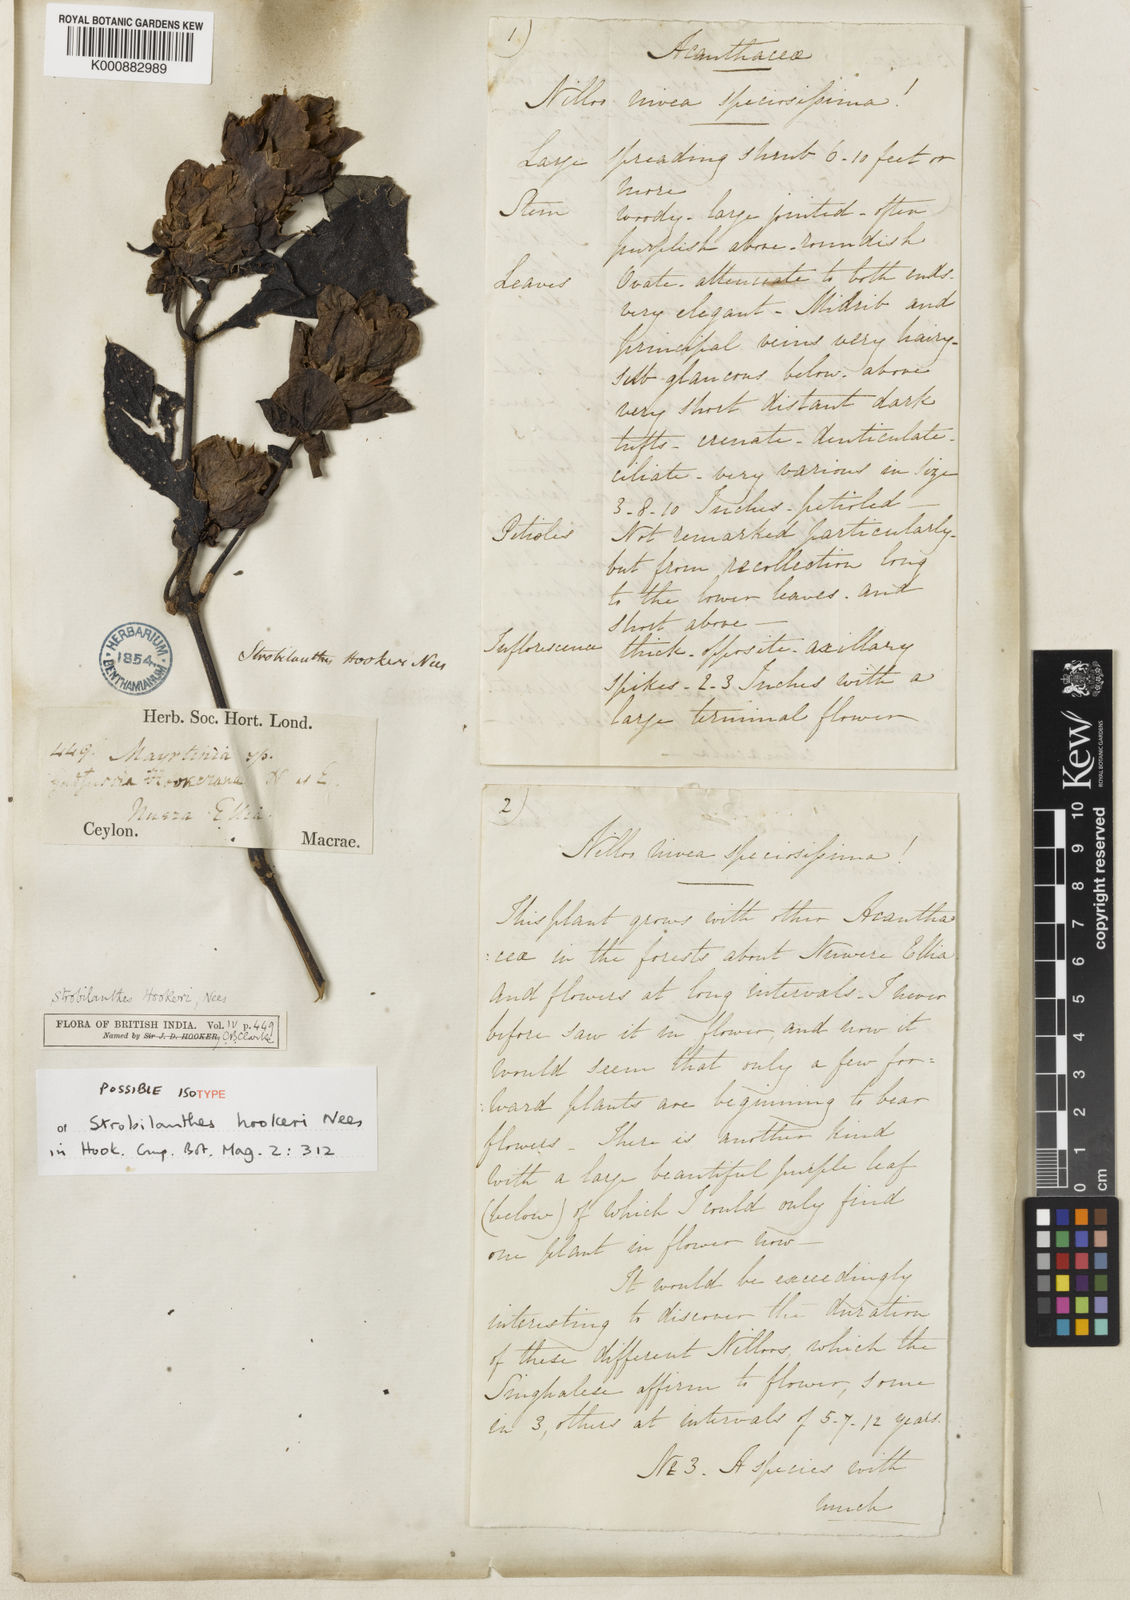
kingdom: Plantae
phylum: Tracheophyta
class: Magnoliopsida
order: Lamiales
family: Acanthaceae
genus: Strobilanthes
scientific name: Strobilanthes hookeri
